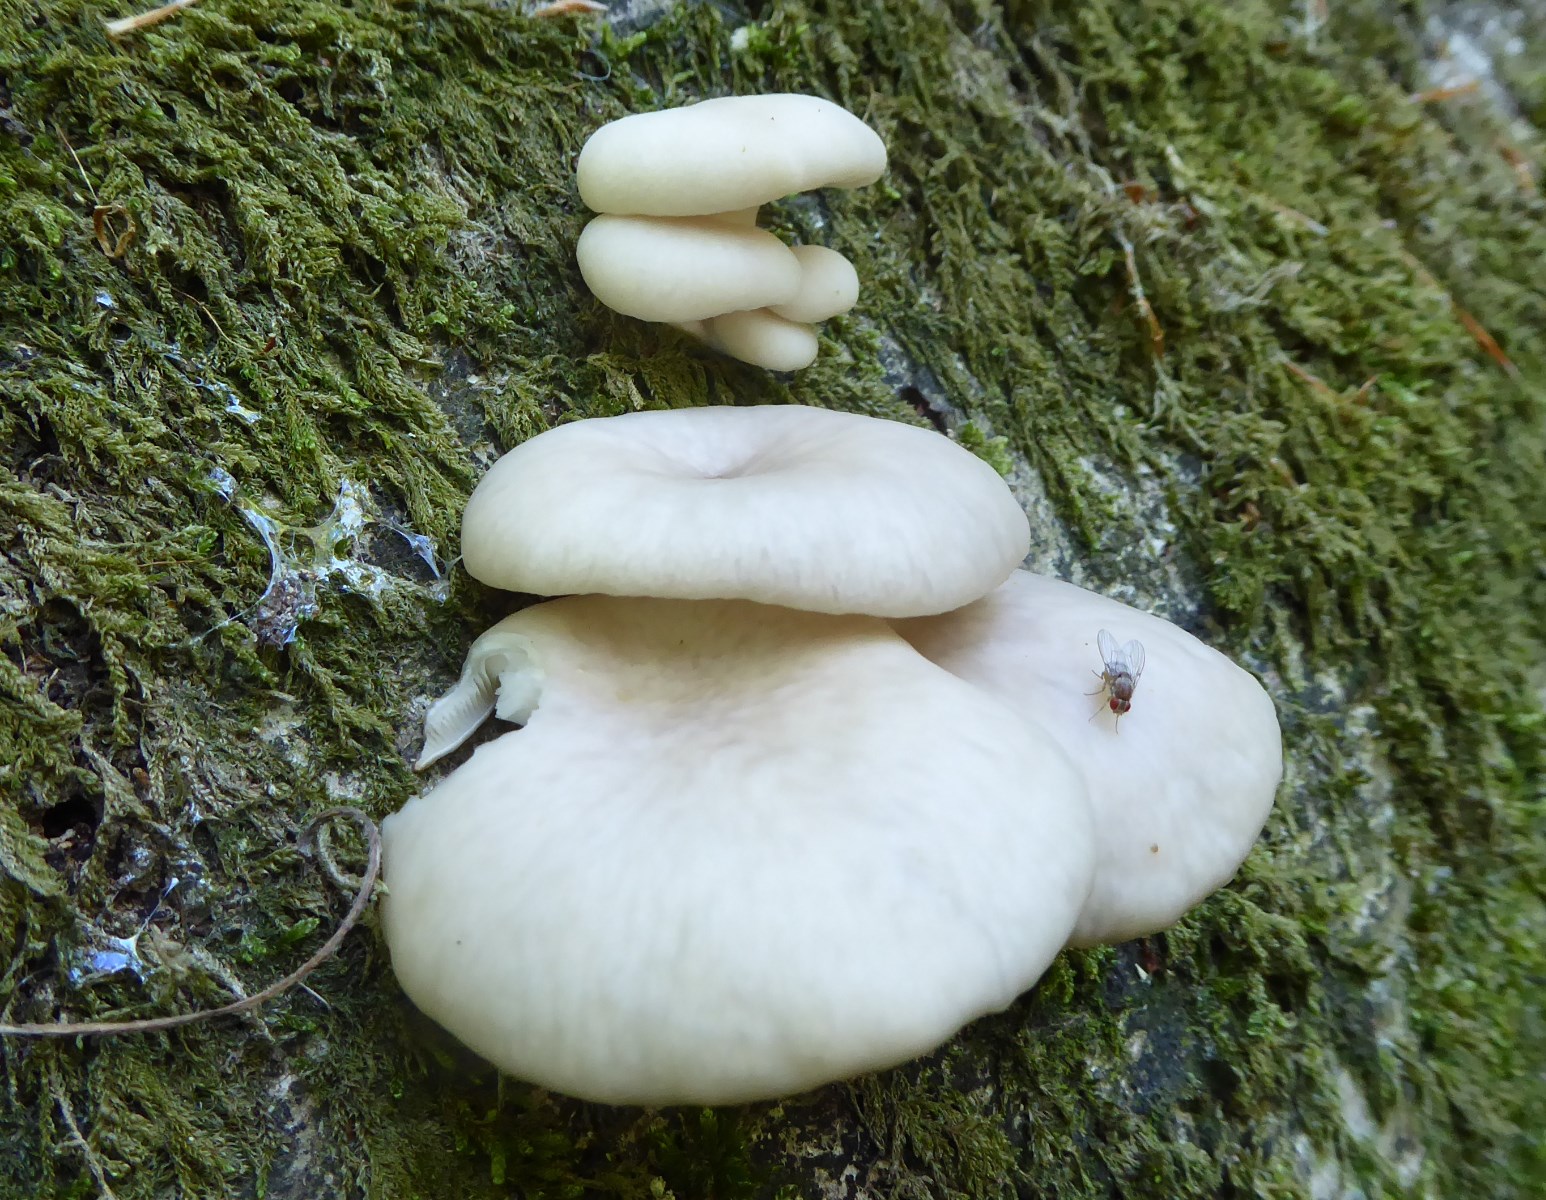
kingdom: Fungi
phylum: Basidiomycota
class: Agaricomycetes
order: Agaricales
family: Pleurotaceae
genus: Pleurotus
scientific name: Pleurotus pulmonarius
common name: sommer-østershat
